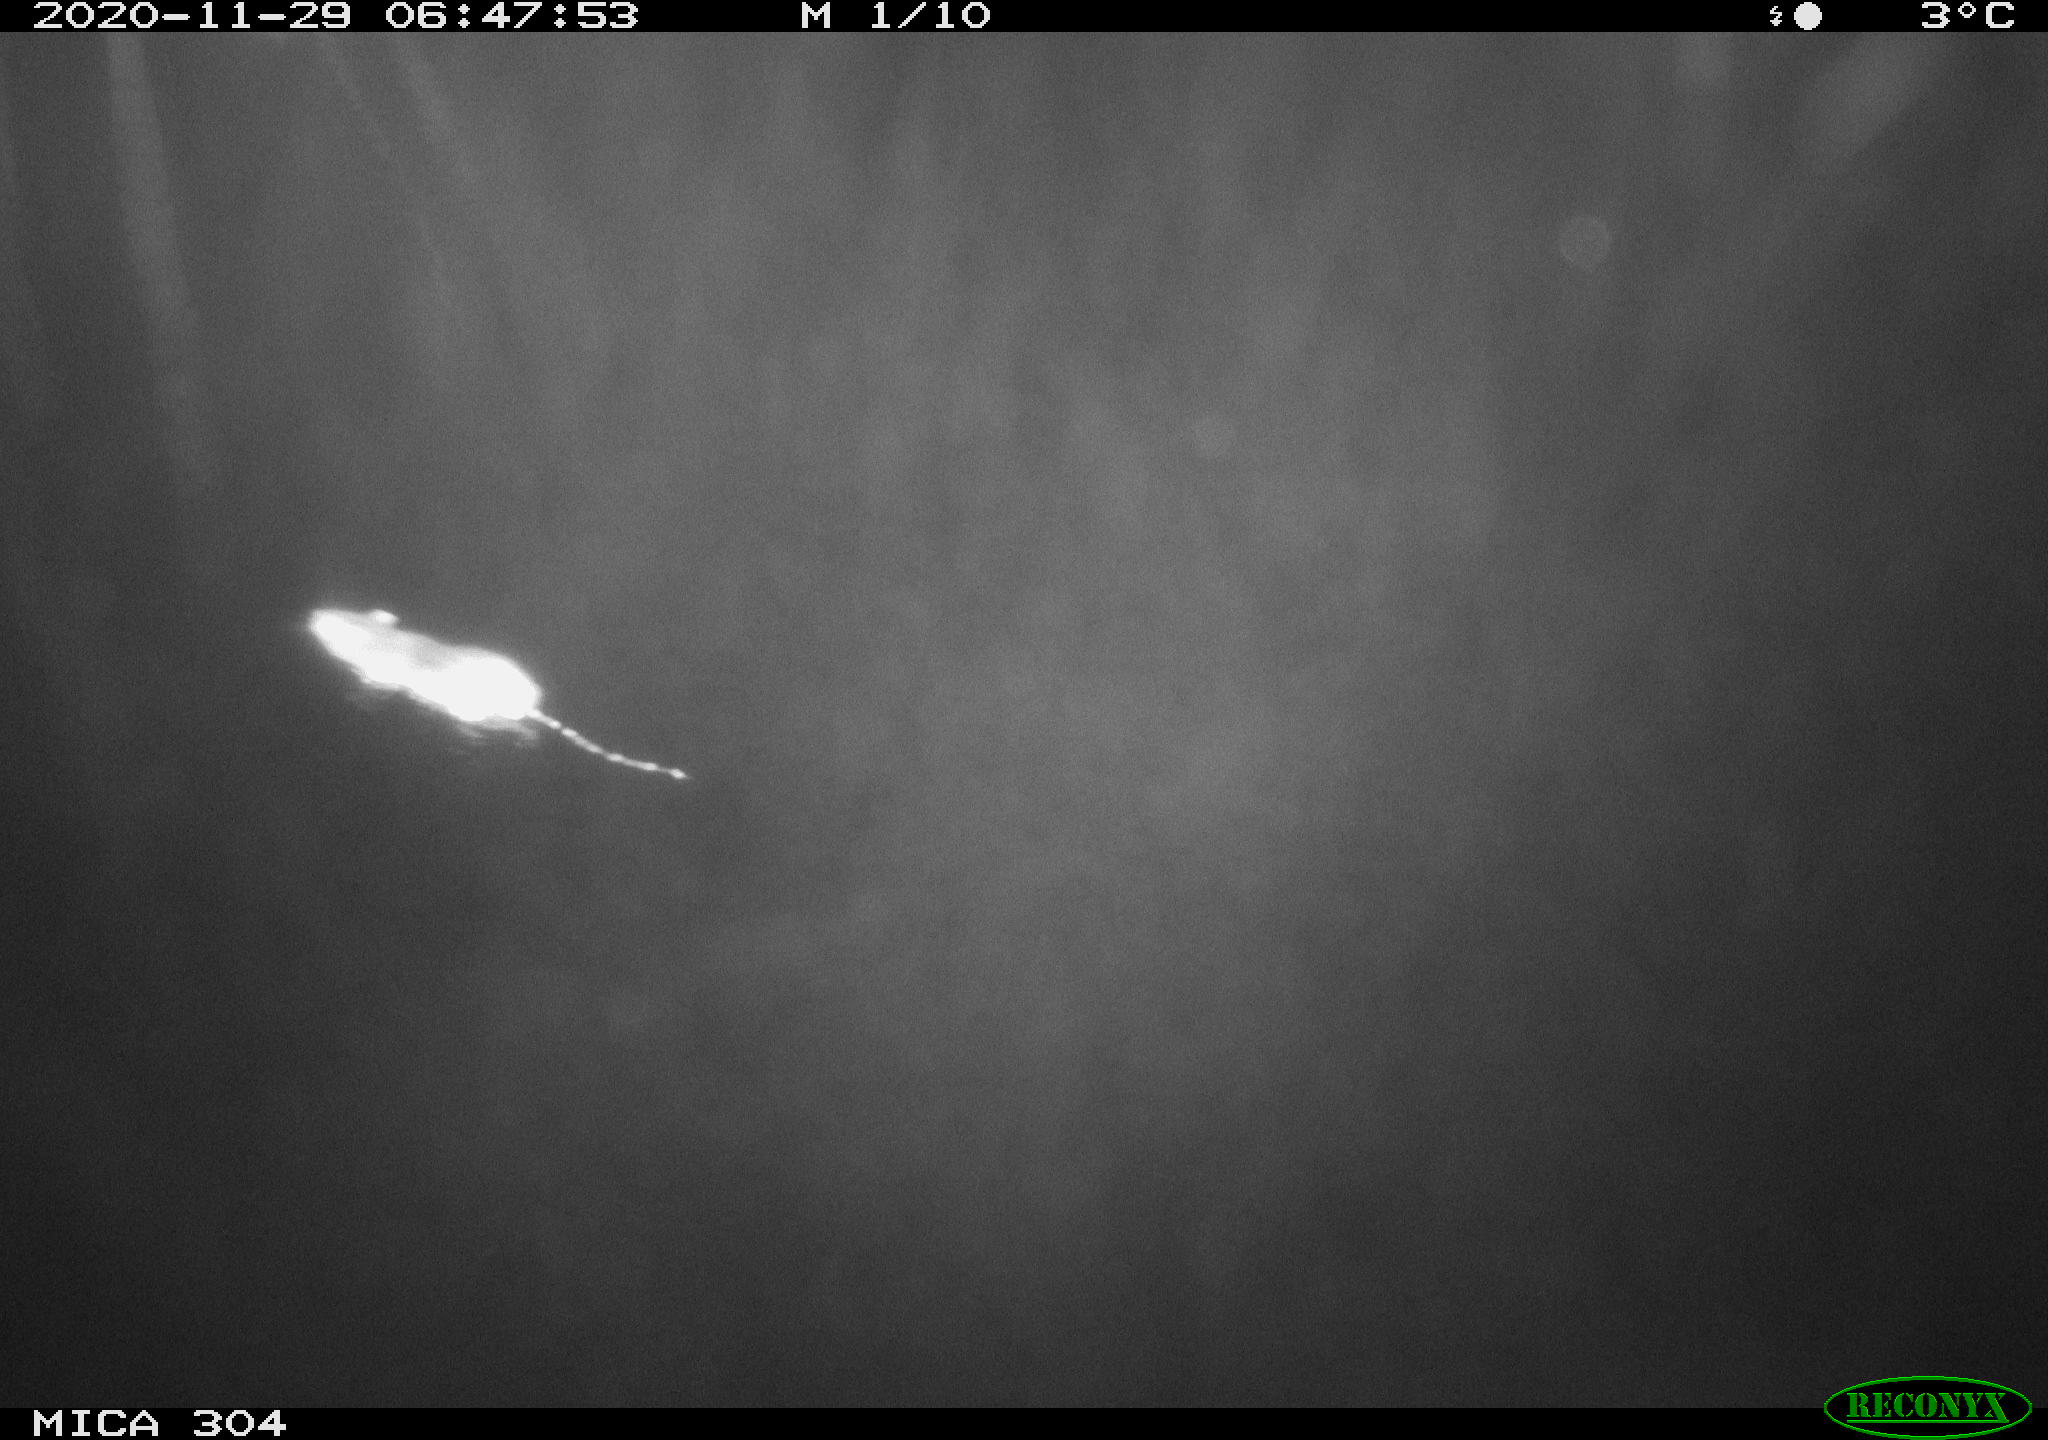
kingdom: Animalia
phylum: Chordata
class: Mammalia
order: Rodentia
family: Muridae
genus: Rattus
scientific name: Rattus norvegicus
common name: Brown rat
